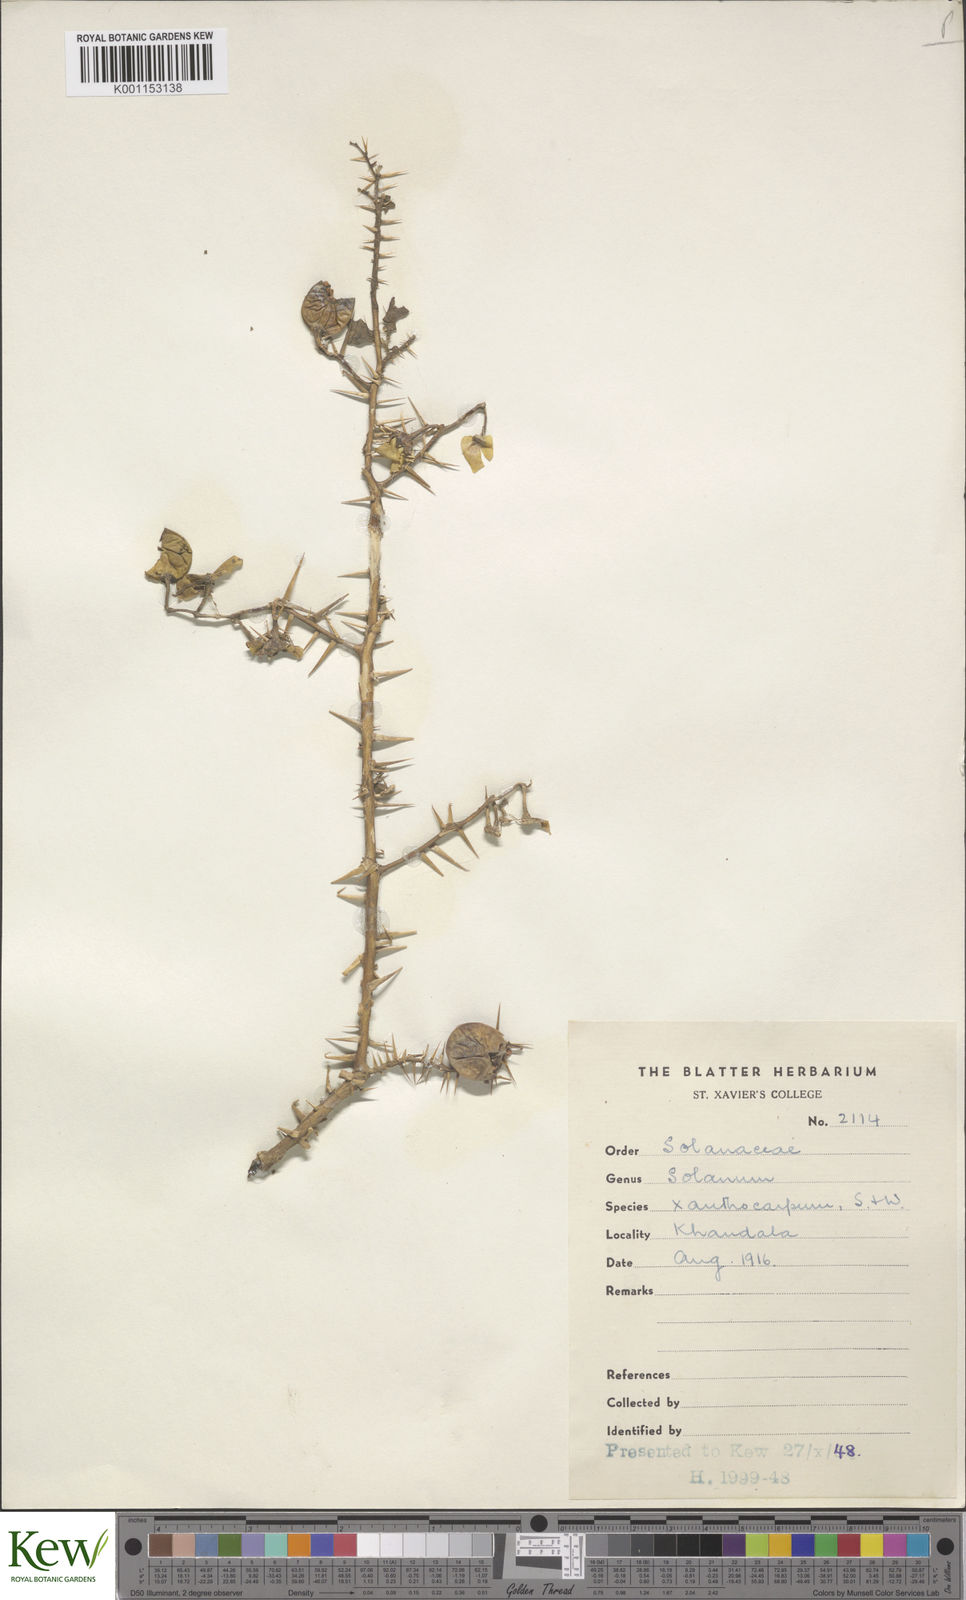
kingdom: Plantae
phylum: Tracheophyta
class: Magnoliopsida
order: Solanales
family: Solanaceae
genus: Solanum
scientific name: Solanum
